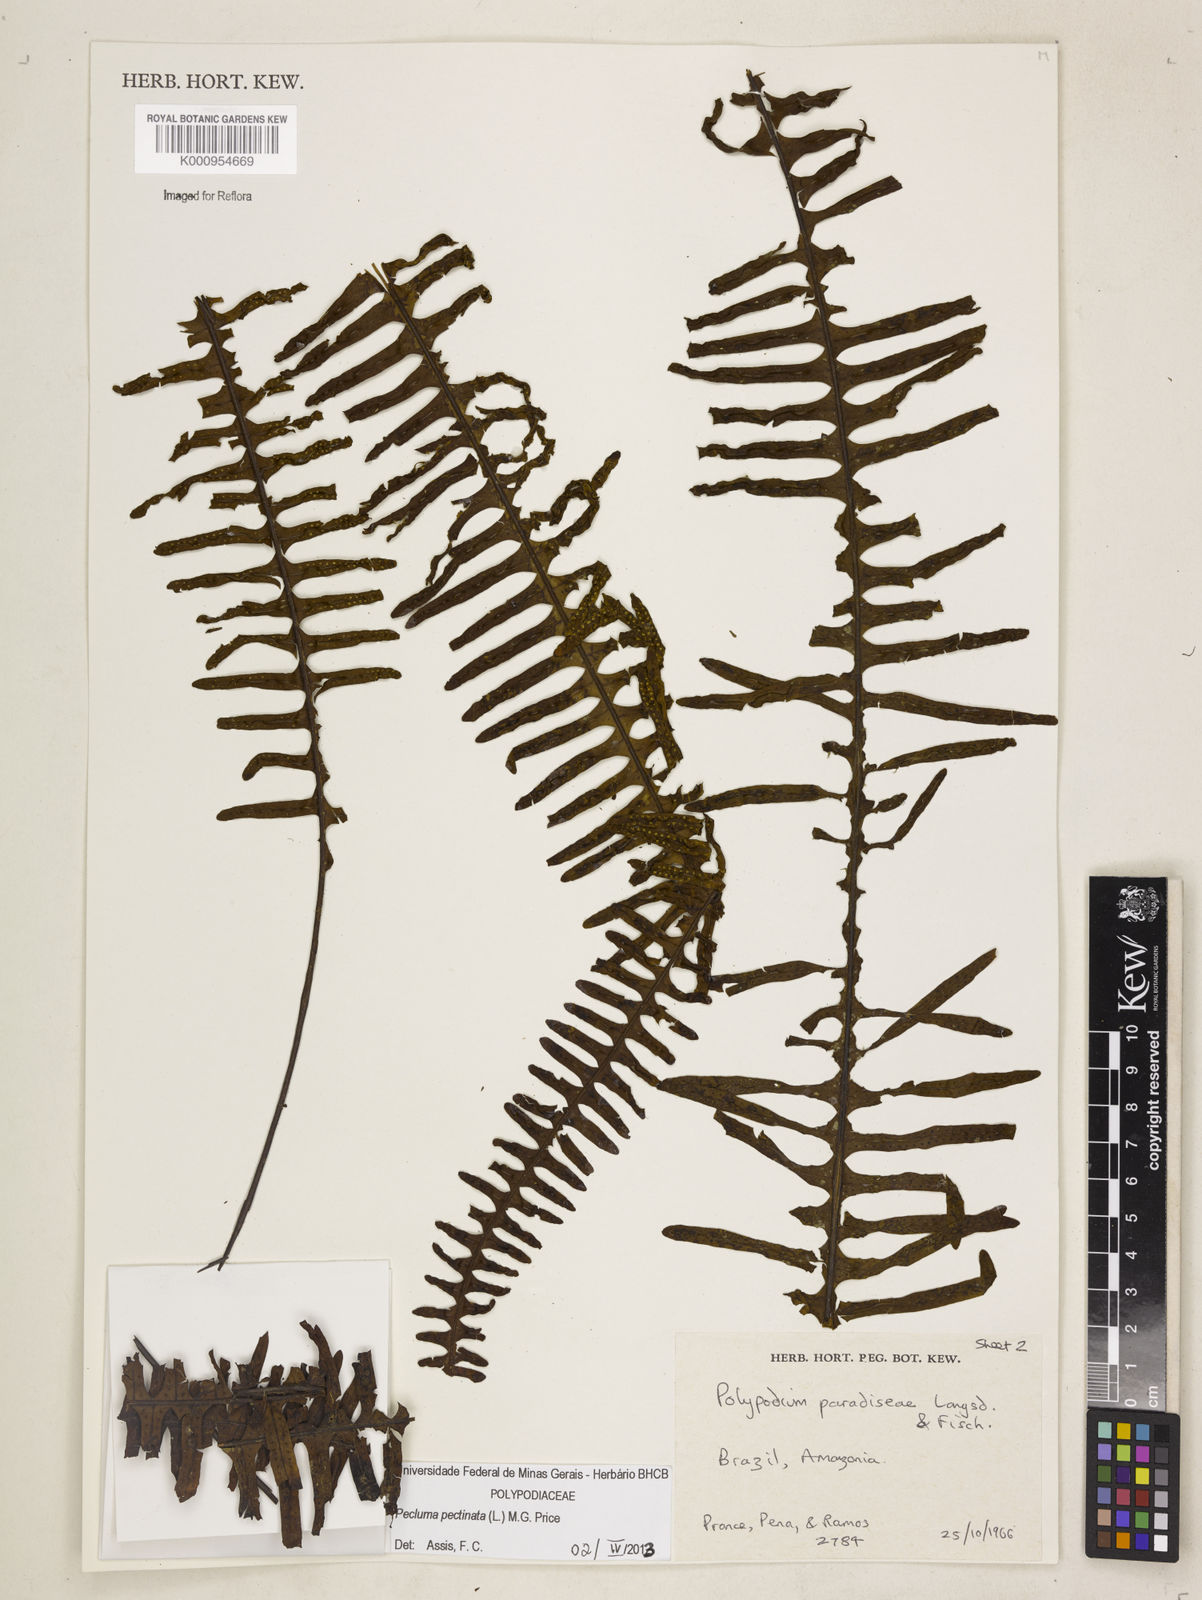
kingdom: Plantae
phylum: Tracheophyta
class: Polypodiopsida
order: Polypodiales
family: Polypodiaceae
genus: Pecluma
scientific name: Pecluma pectinata
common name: Msasa fern
